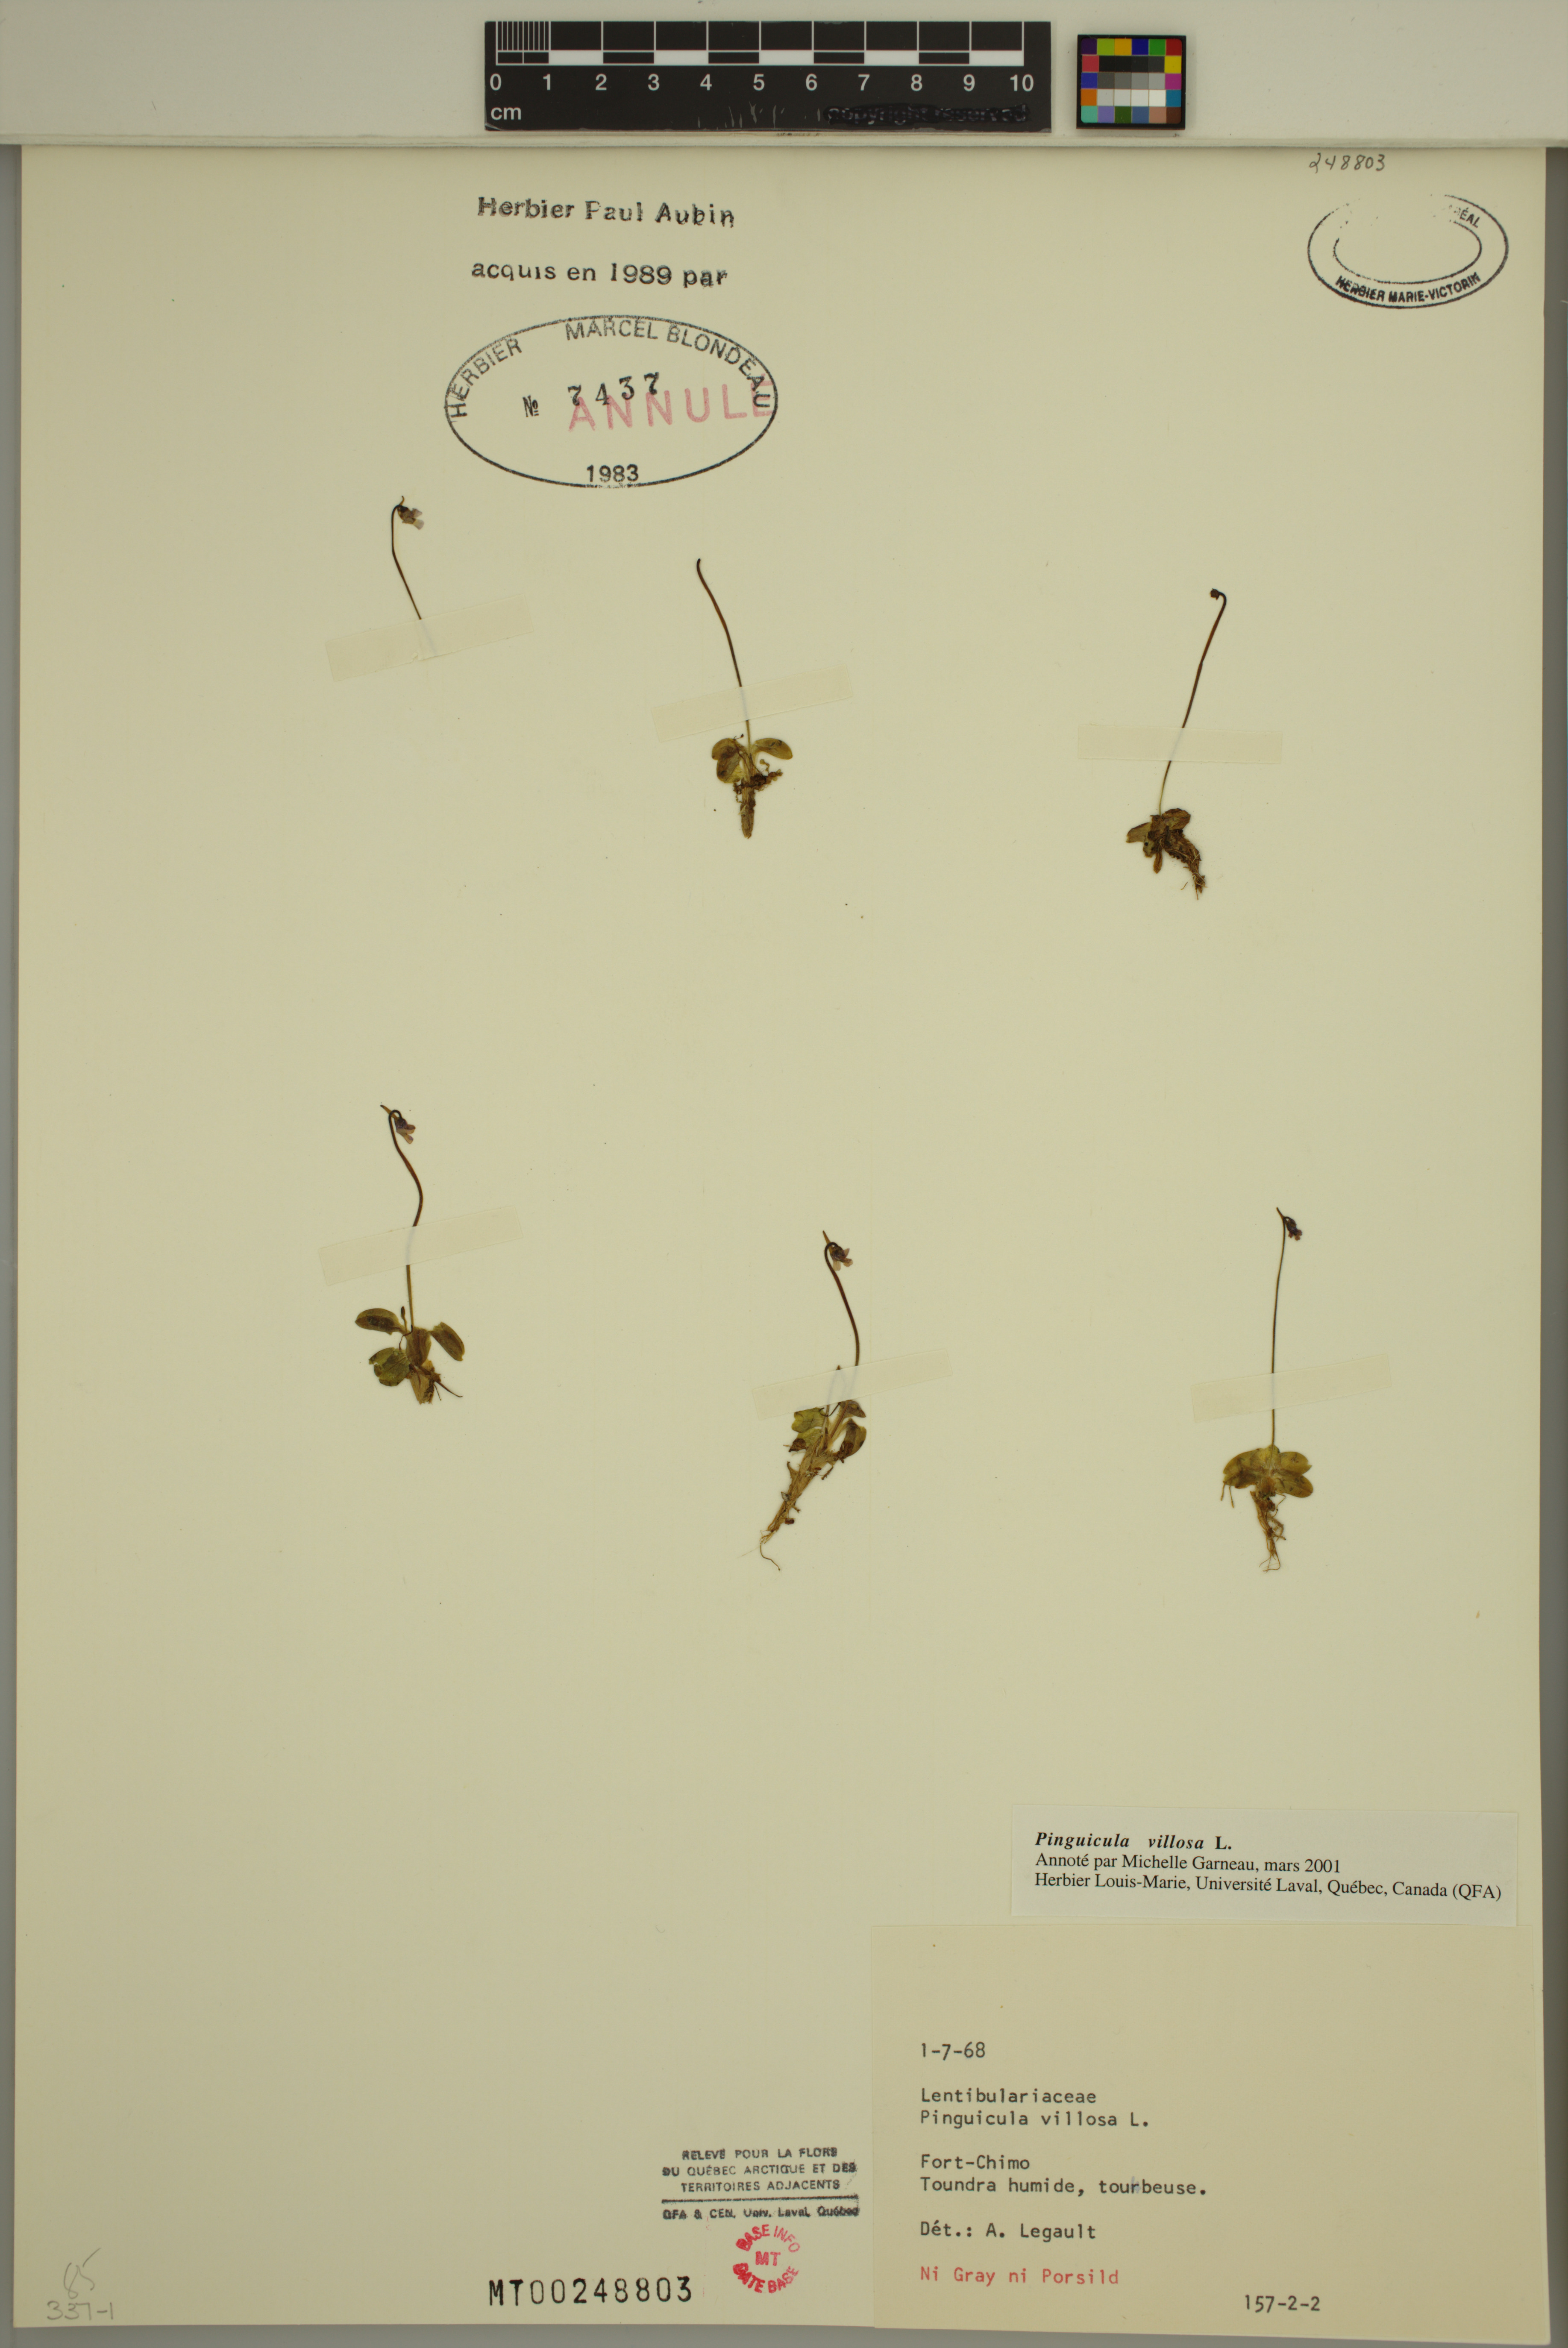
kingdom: Plantae
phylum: Tracheophyta
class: Magnoliopsida
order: Lamiales
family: Lentibulariaceae
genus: Pinguicula
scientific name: Pinguicula villosa
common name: Hairy butterwort
